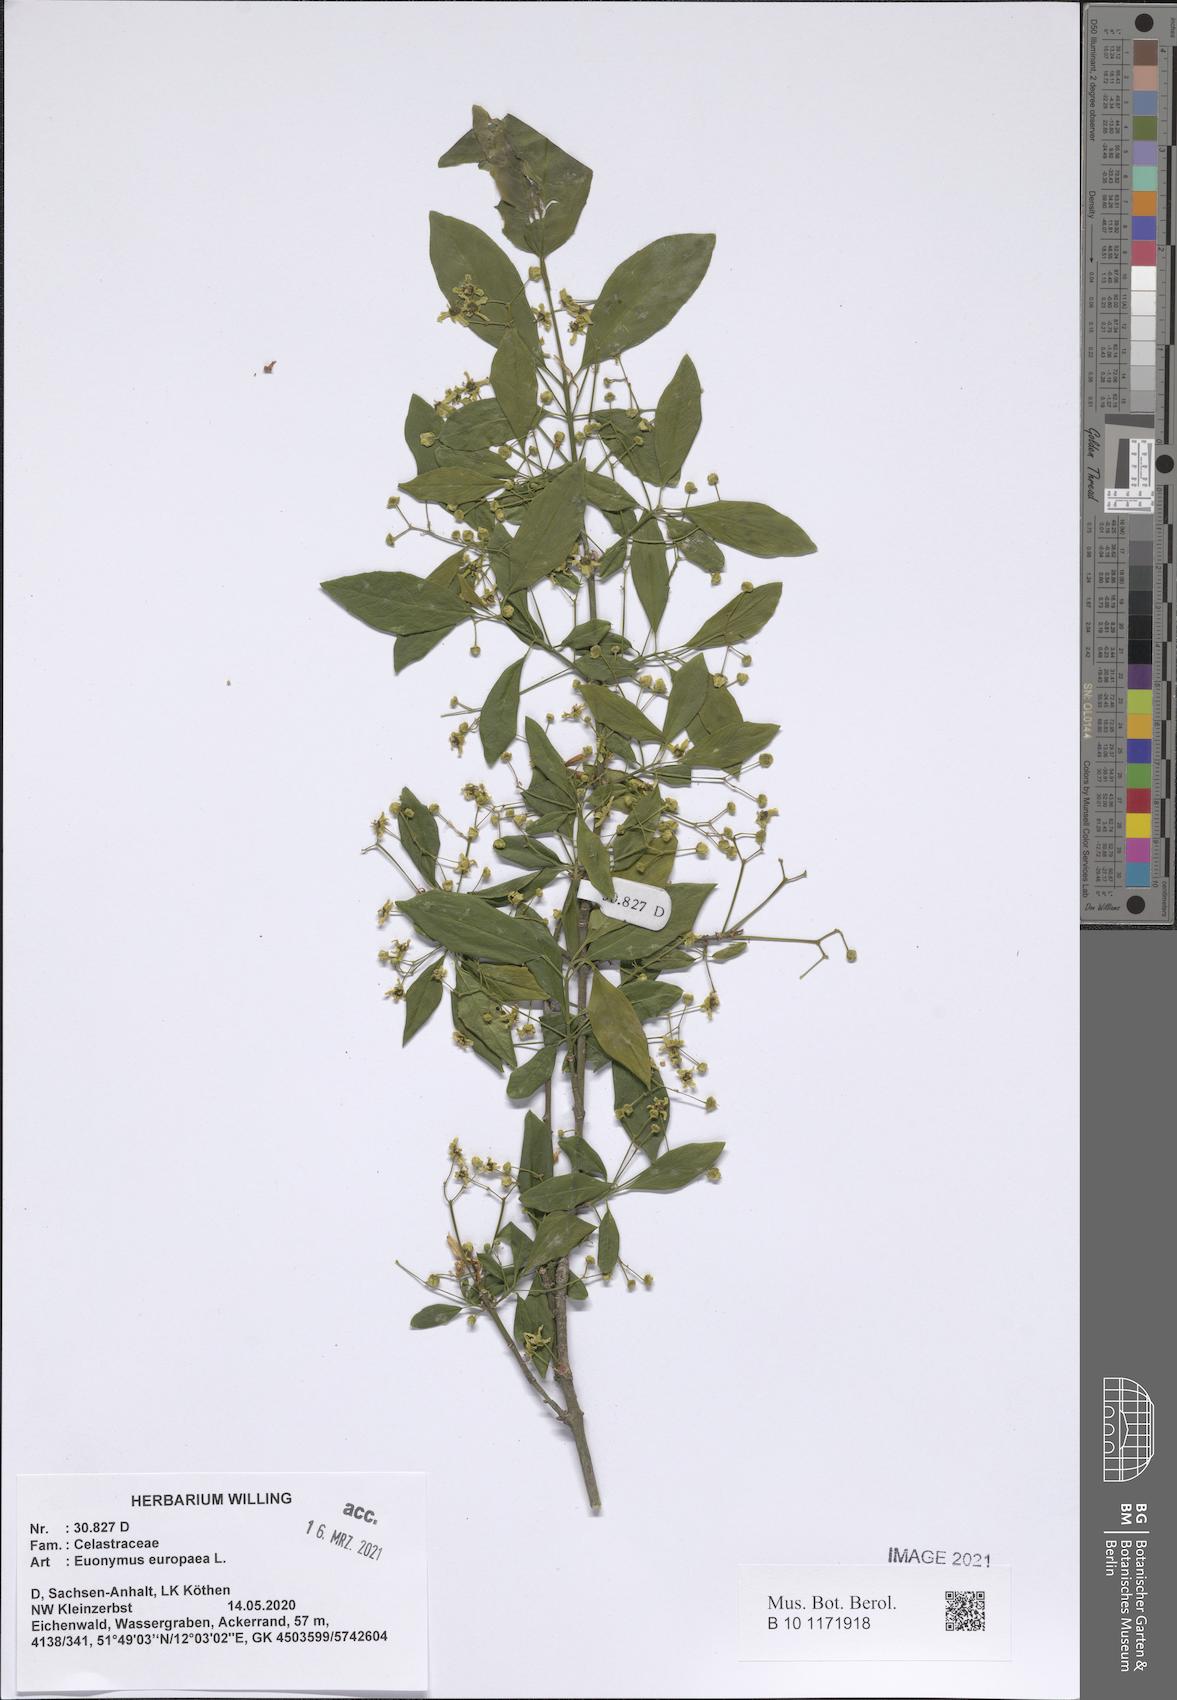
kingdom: Plantae
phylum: Tracheophyta
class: Magnoliopsida
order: Celastrales
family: Celastraceae
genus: Euonymus
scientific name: Euonymus europaeus
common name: Spindle
